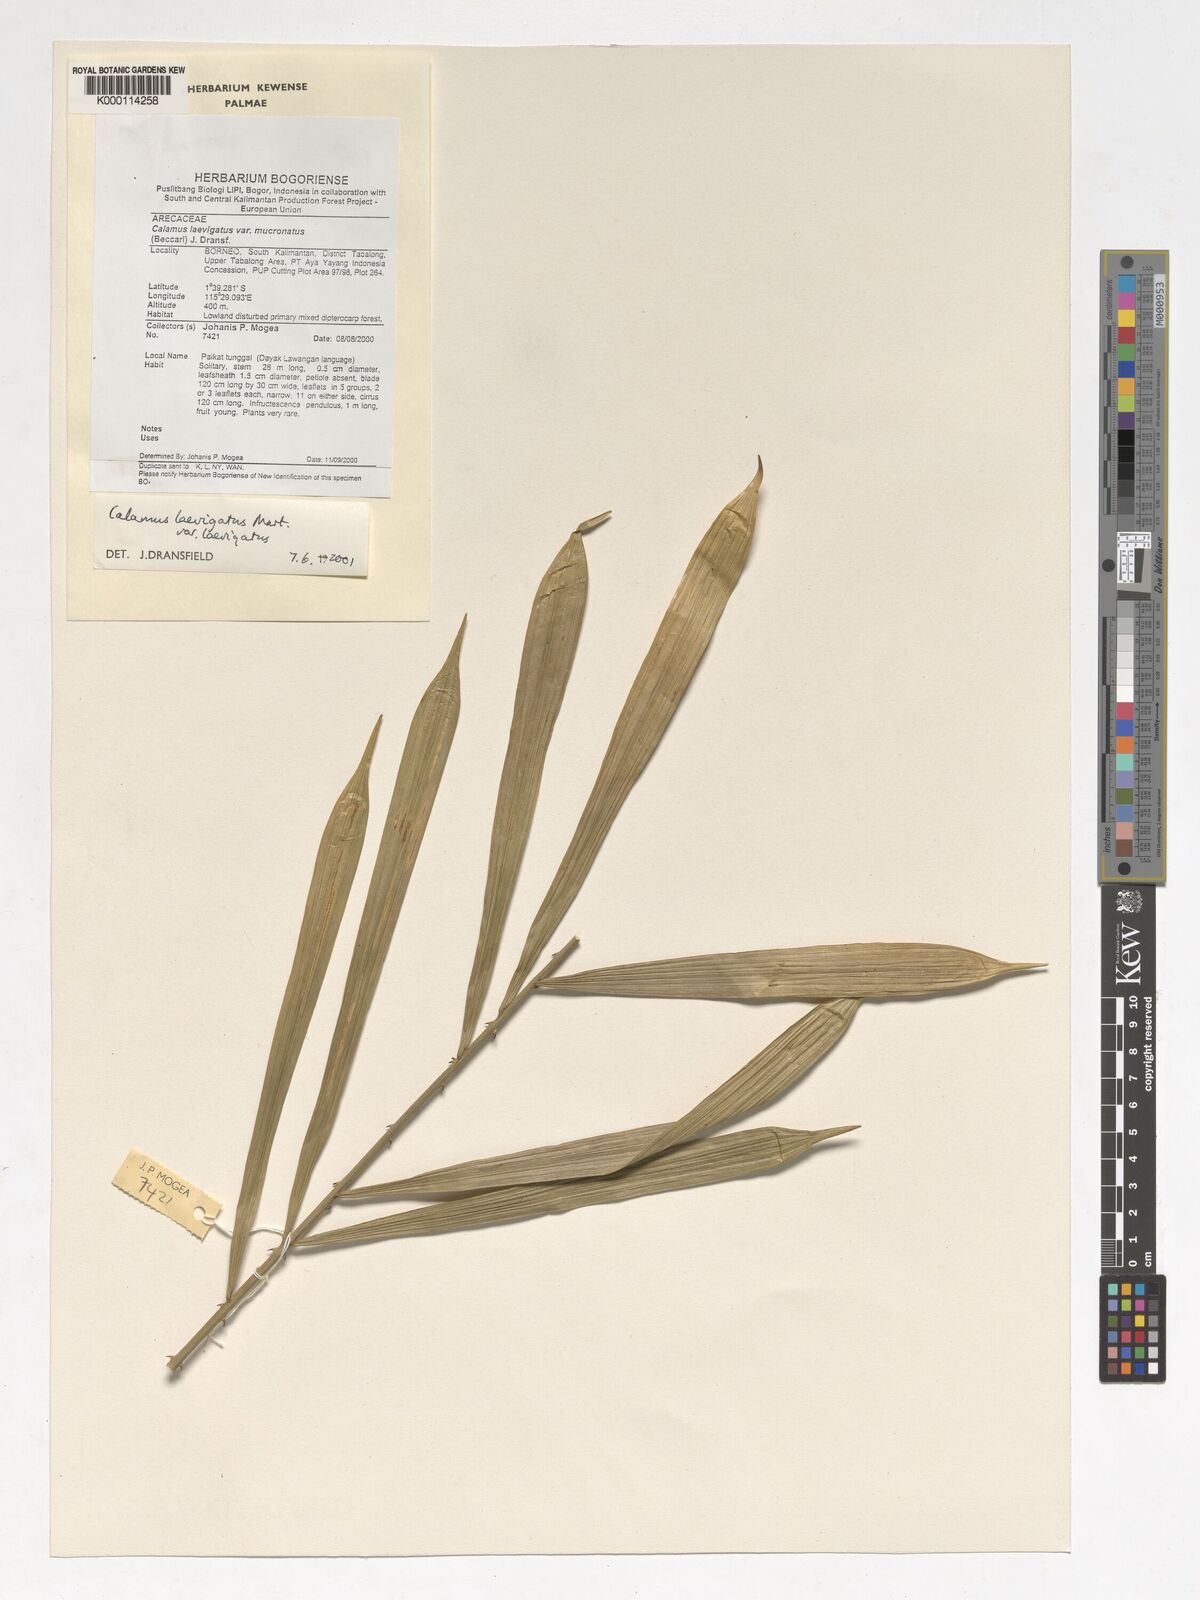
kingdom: Plantae
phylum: Tracheophyta
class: Liliopsida
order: Arecales
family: Arecaceae
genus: Calamus
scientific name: Calamus
